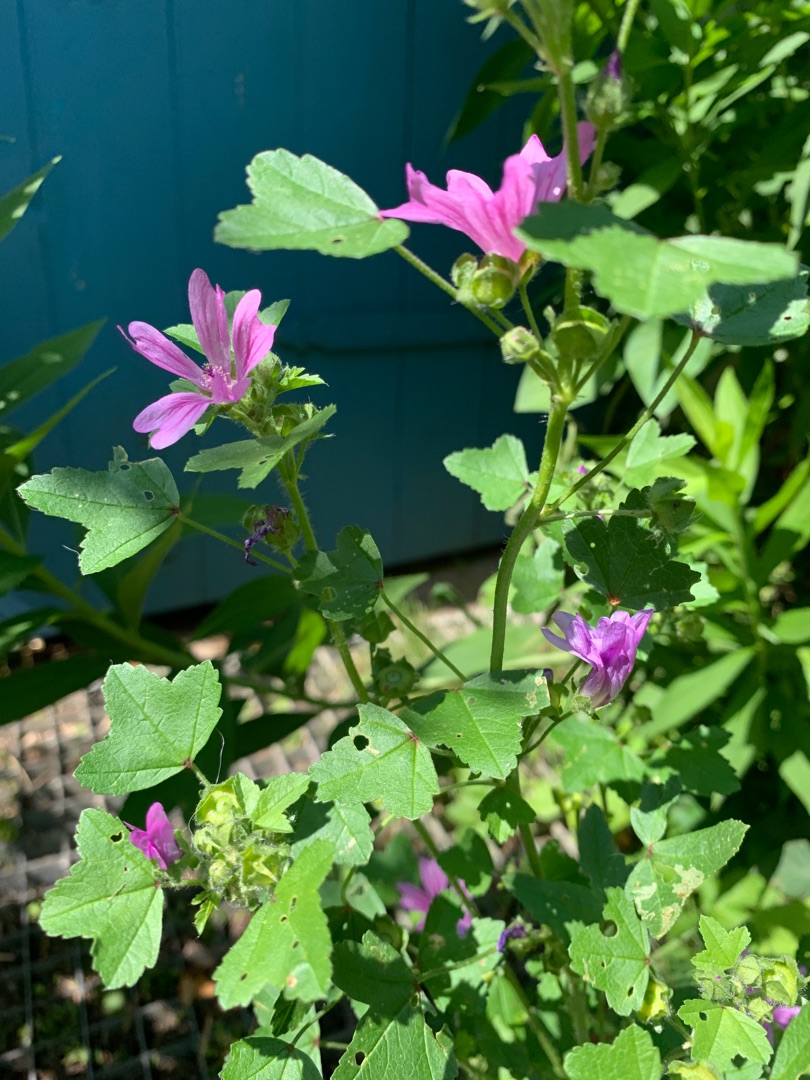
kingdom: Plantae
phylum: Tracheophyta
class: Magnoliopsida
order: Malvales
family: Malvaceae
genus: Malva
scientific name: Malva sylvestris
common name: Almindelig katost
